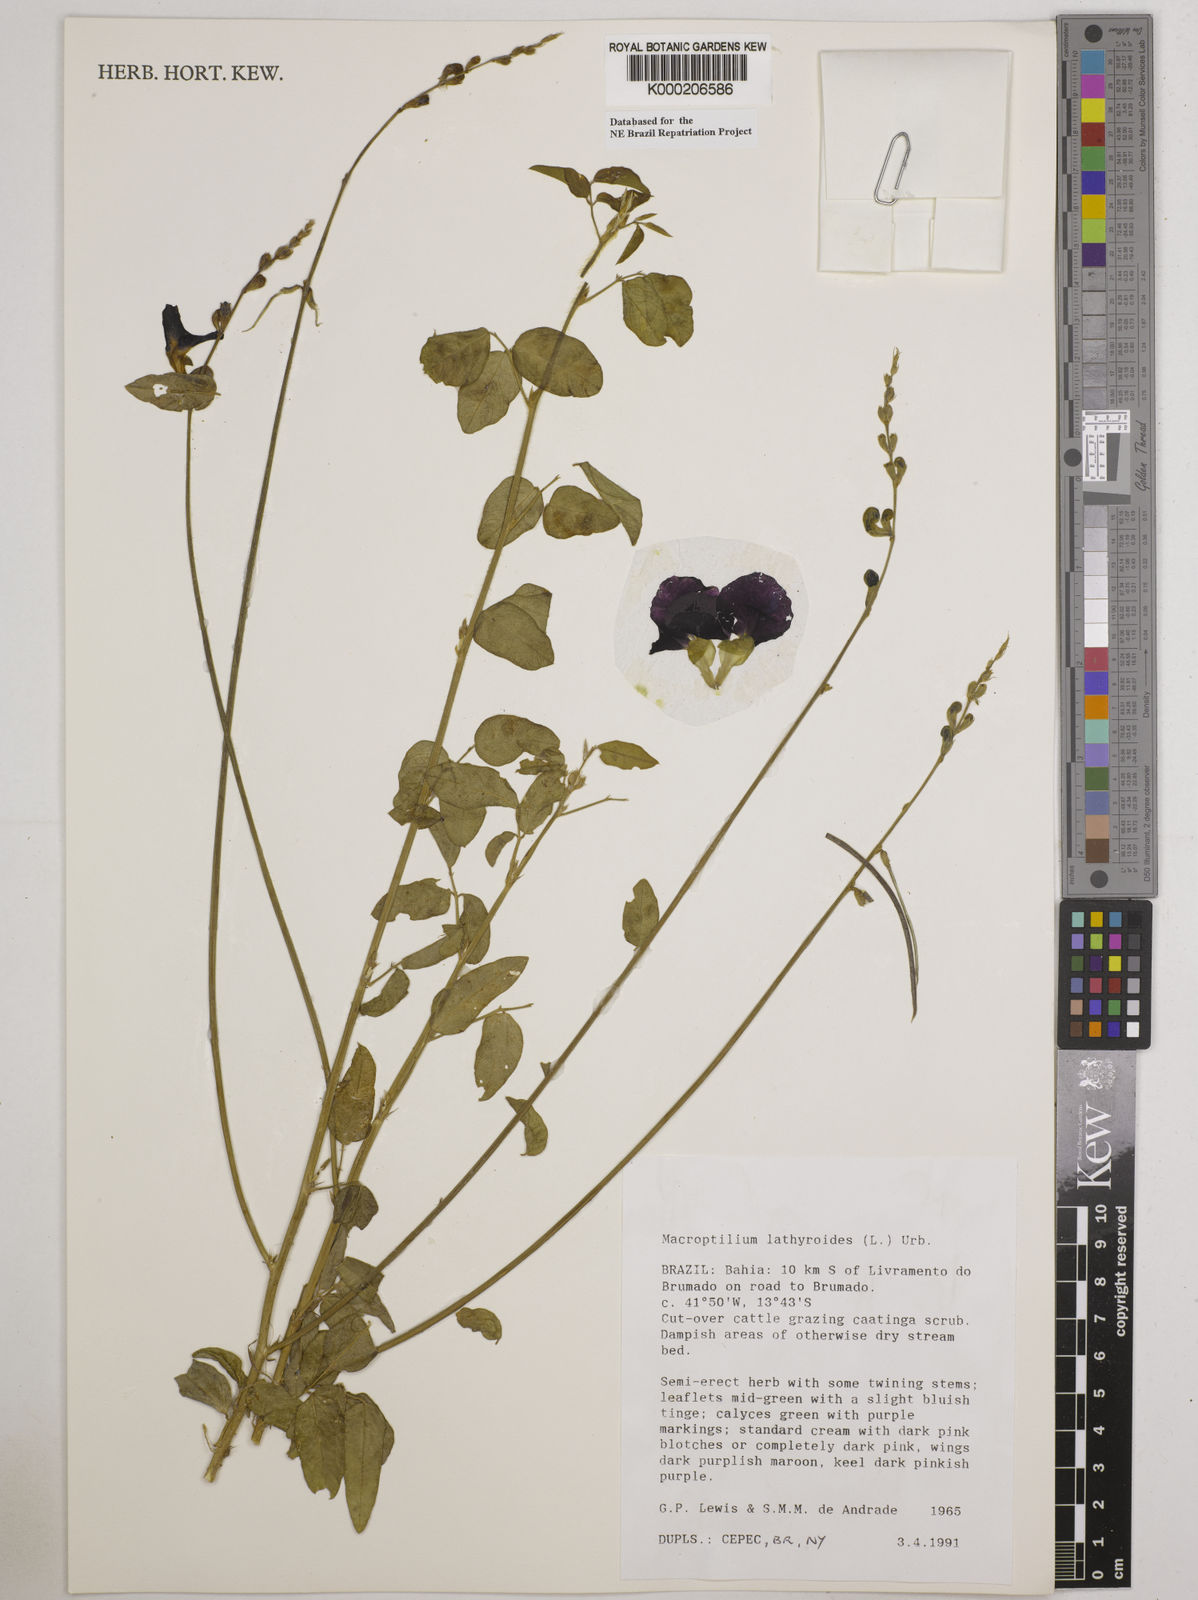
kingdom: Plantae
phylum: Tracheophyta
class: Magnoliopsida
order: Fabales
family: Fabaceae
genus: Macroptilium
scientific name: Macroptilium lathyroides
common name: Wild bushbean
